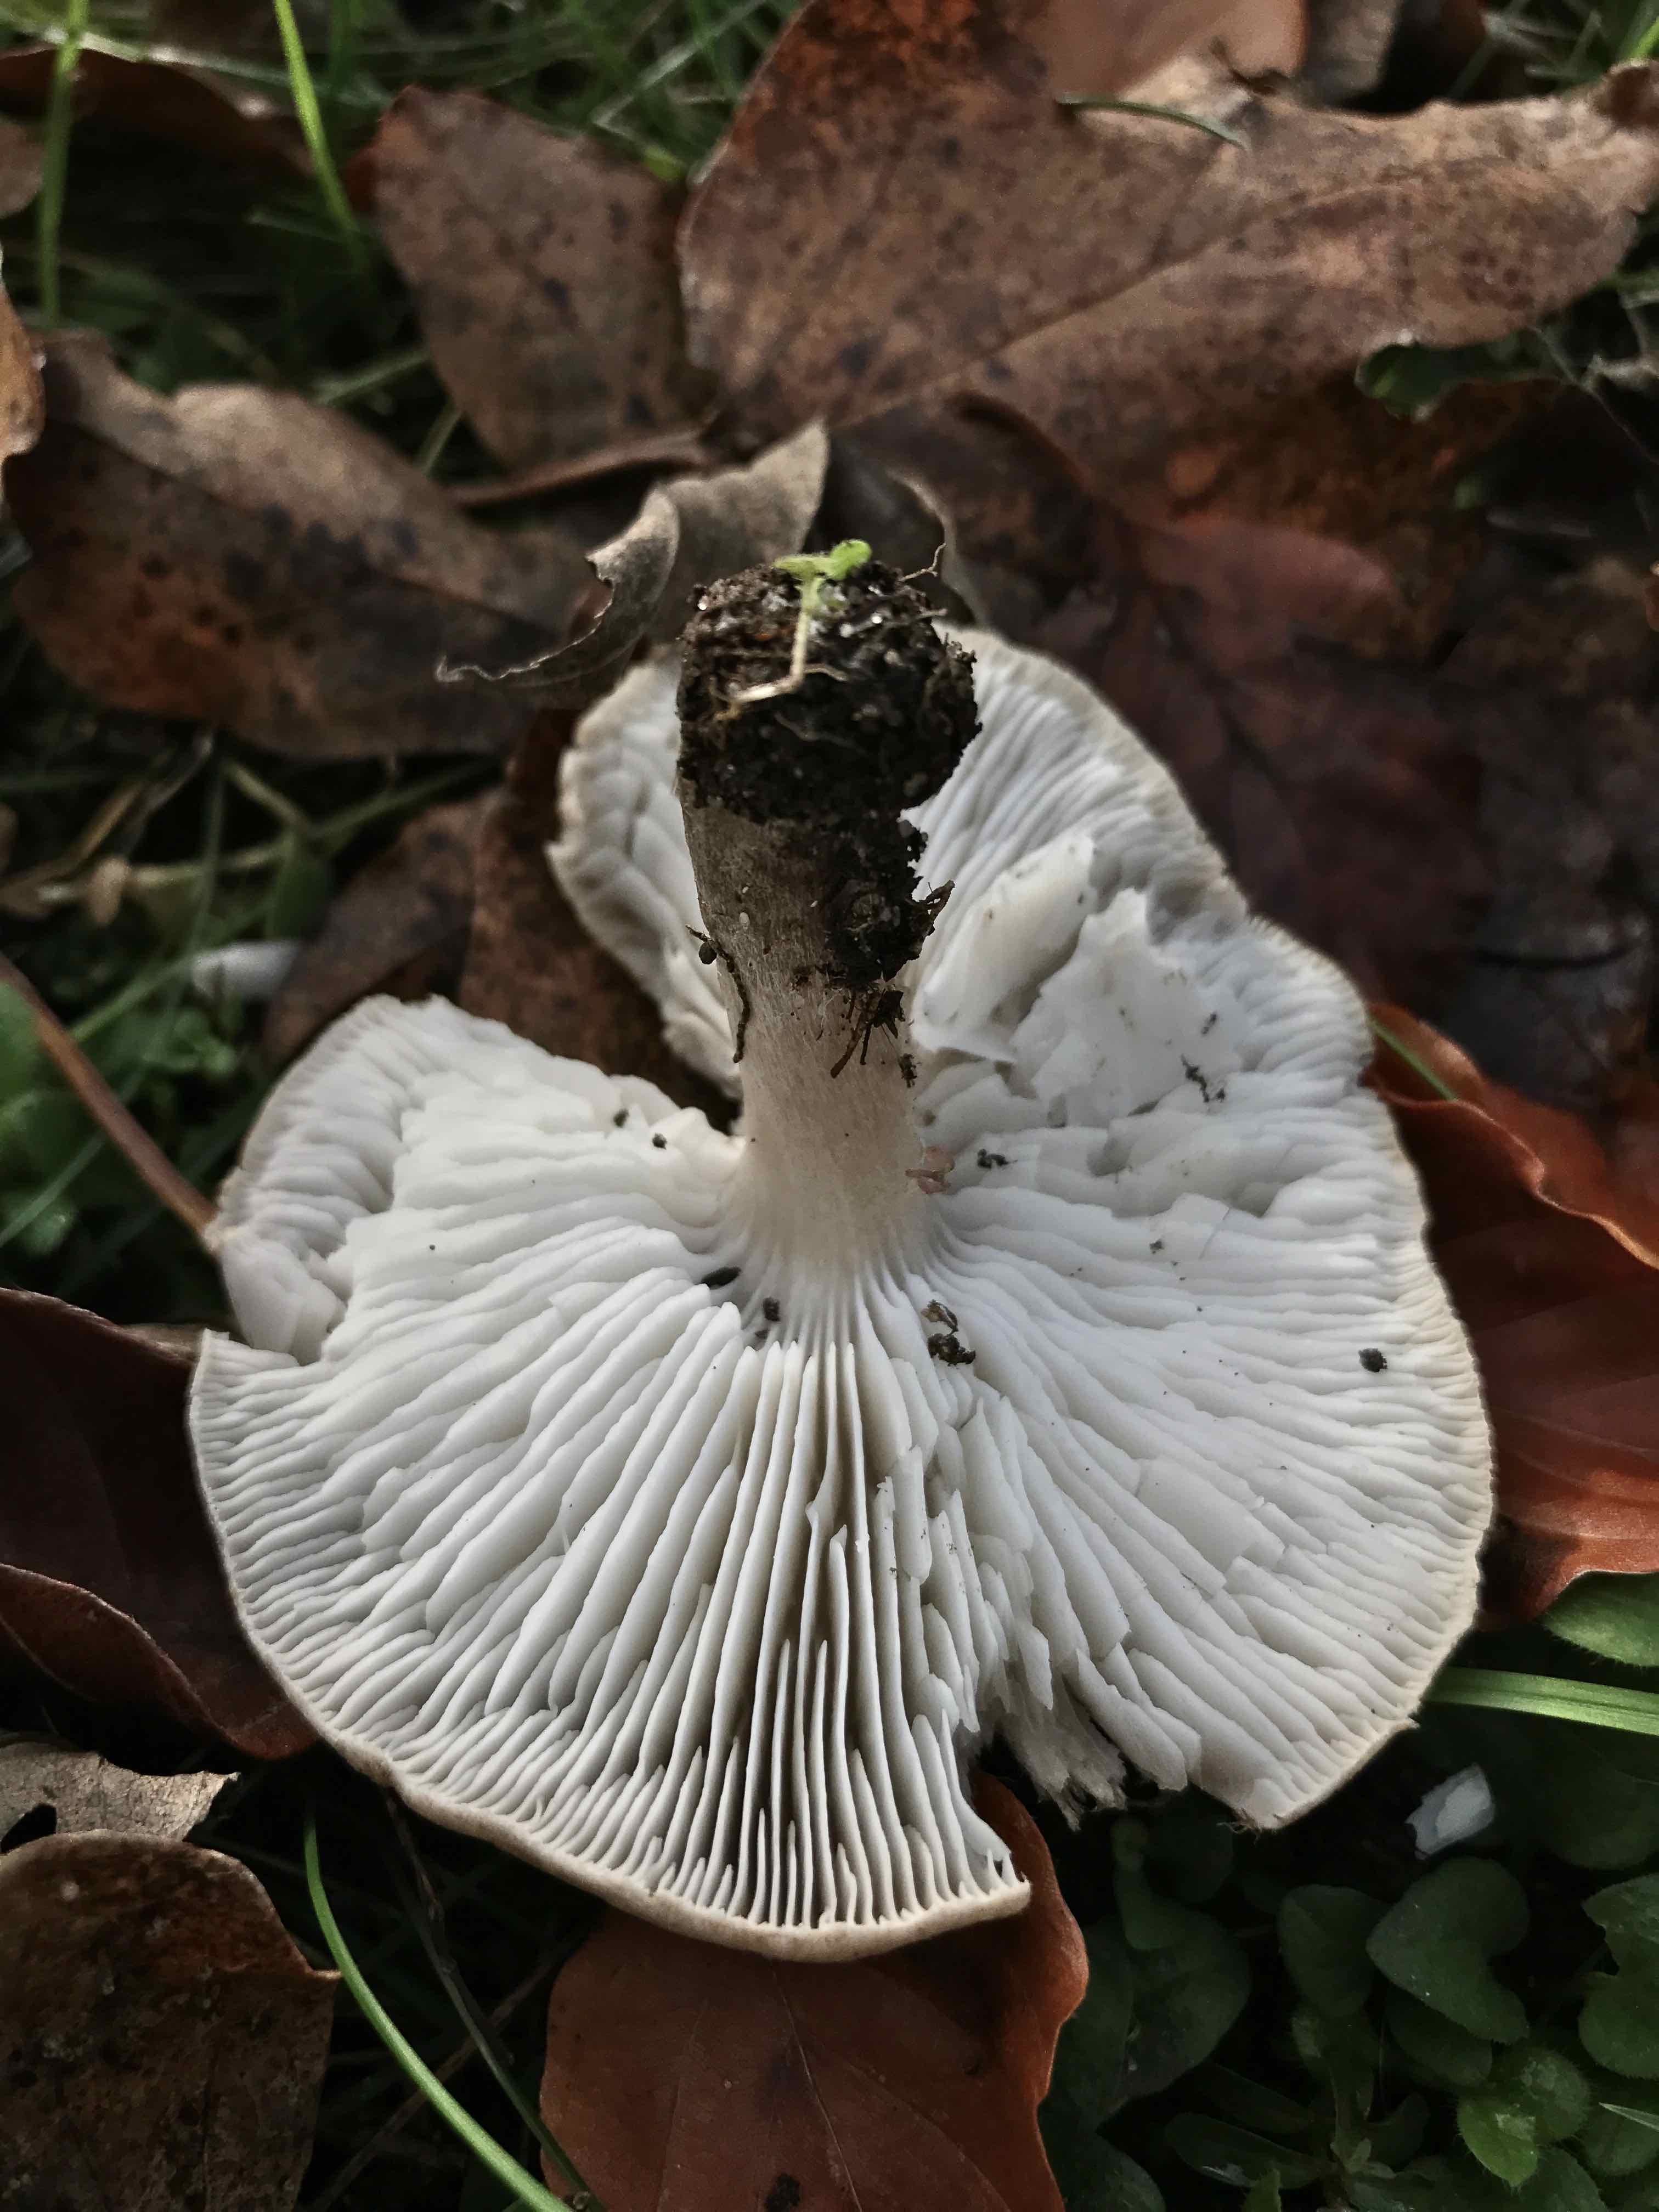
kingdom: Fungi
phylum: Basidiomycota
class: Agaricomycetes
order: Agaricales
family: Tricholomataceae
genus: Tricholoma
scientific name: Tricholoma scalpturatum
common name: gulplettet ridderhat
